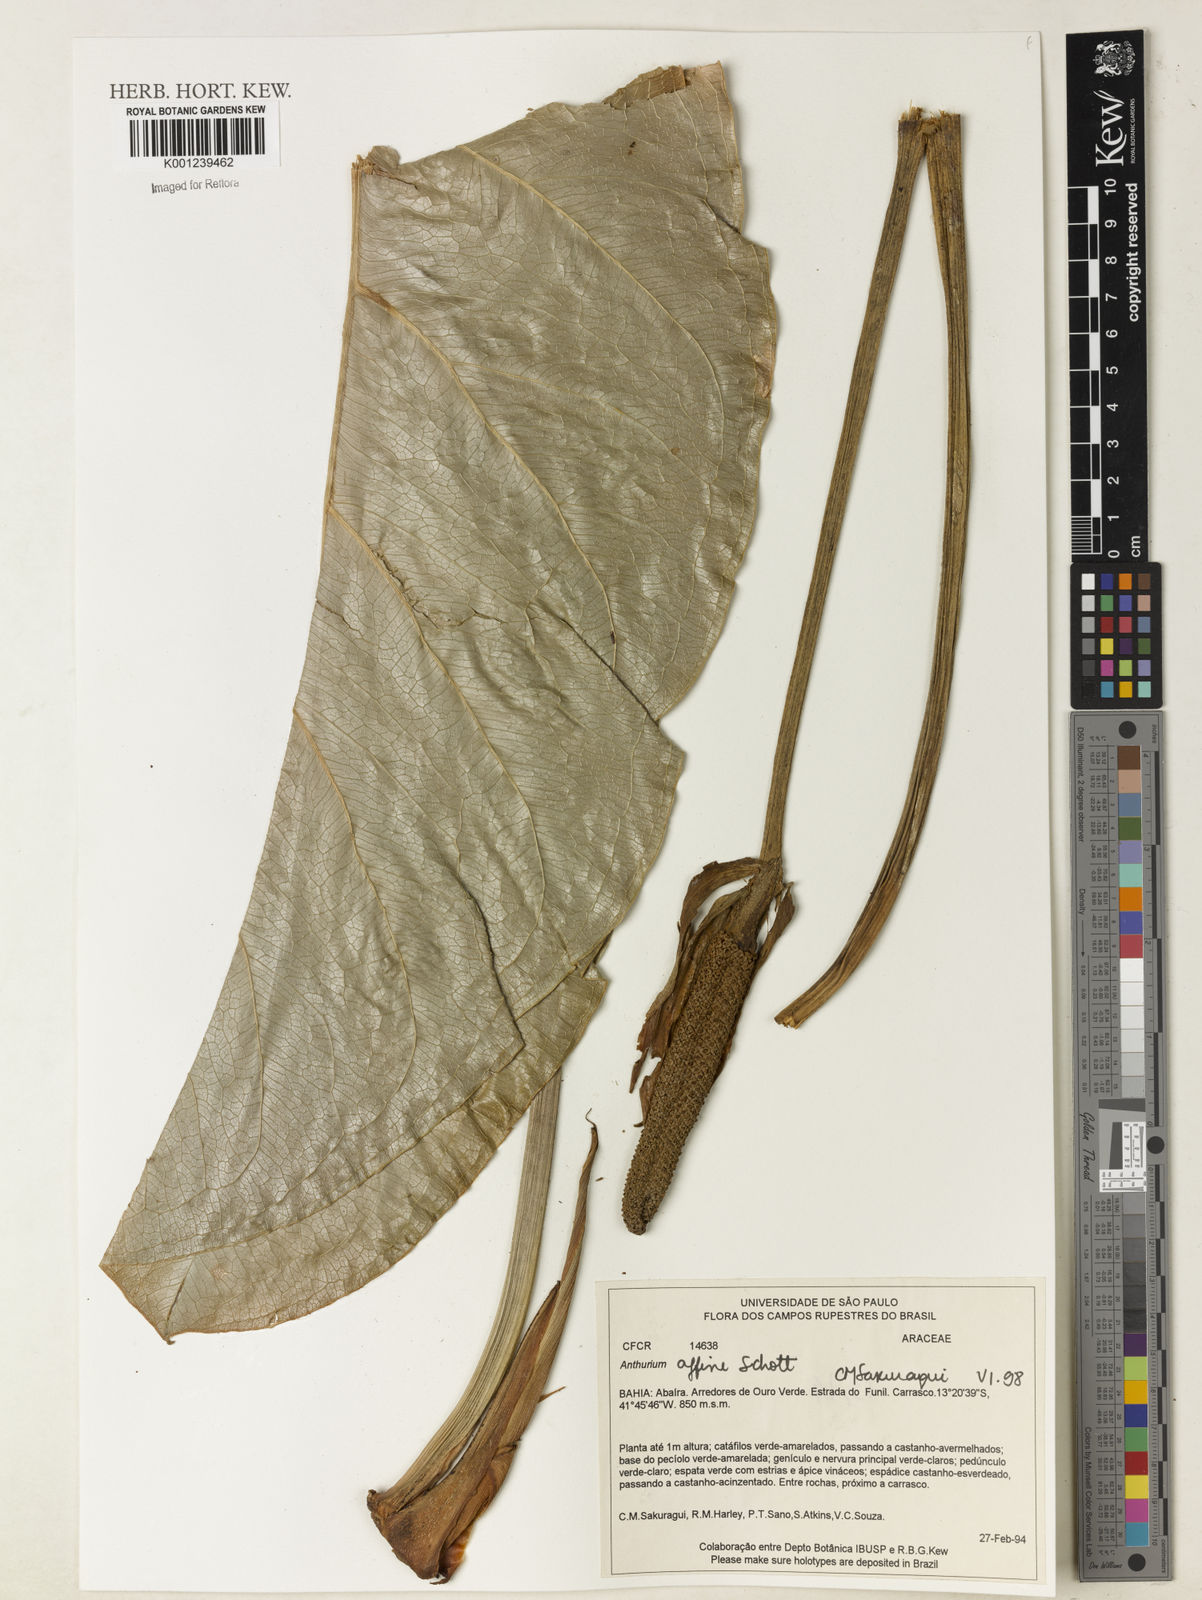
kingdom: Plantae
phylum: Tracheophyta
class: Liliopsida
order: Alismatales
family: Araceae
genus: Anthurium
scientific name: Anthurium affine
